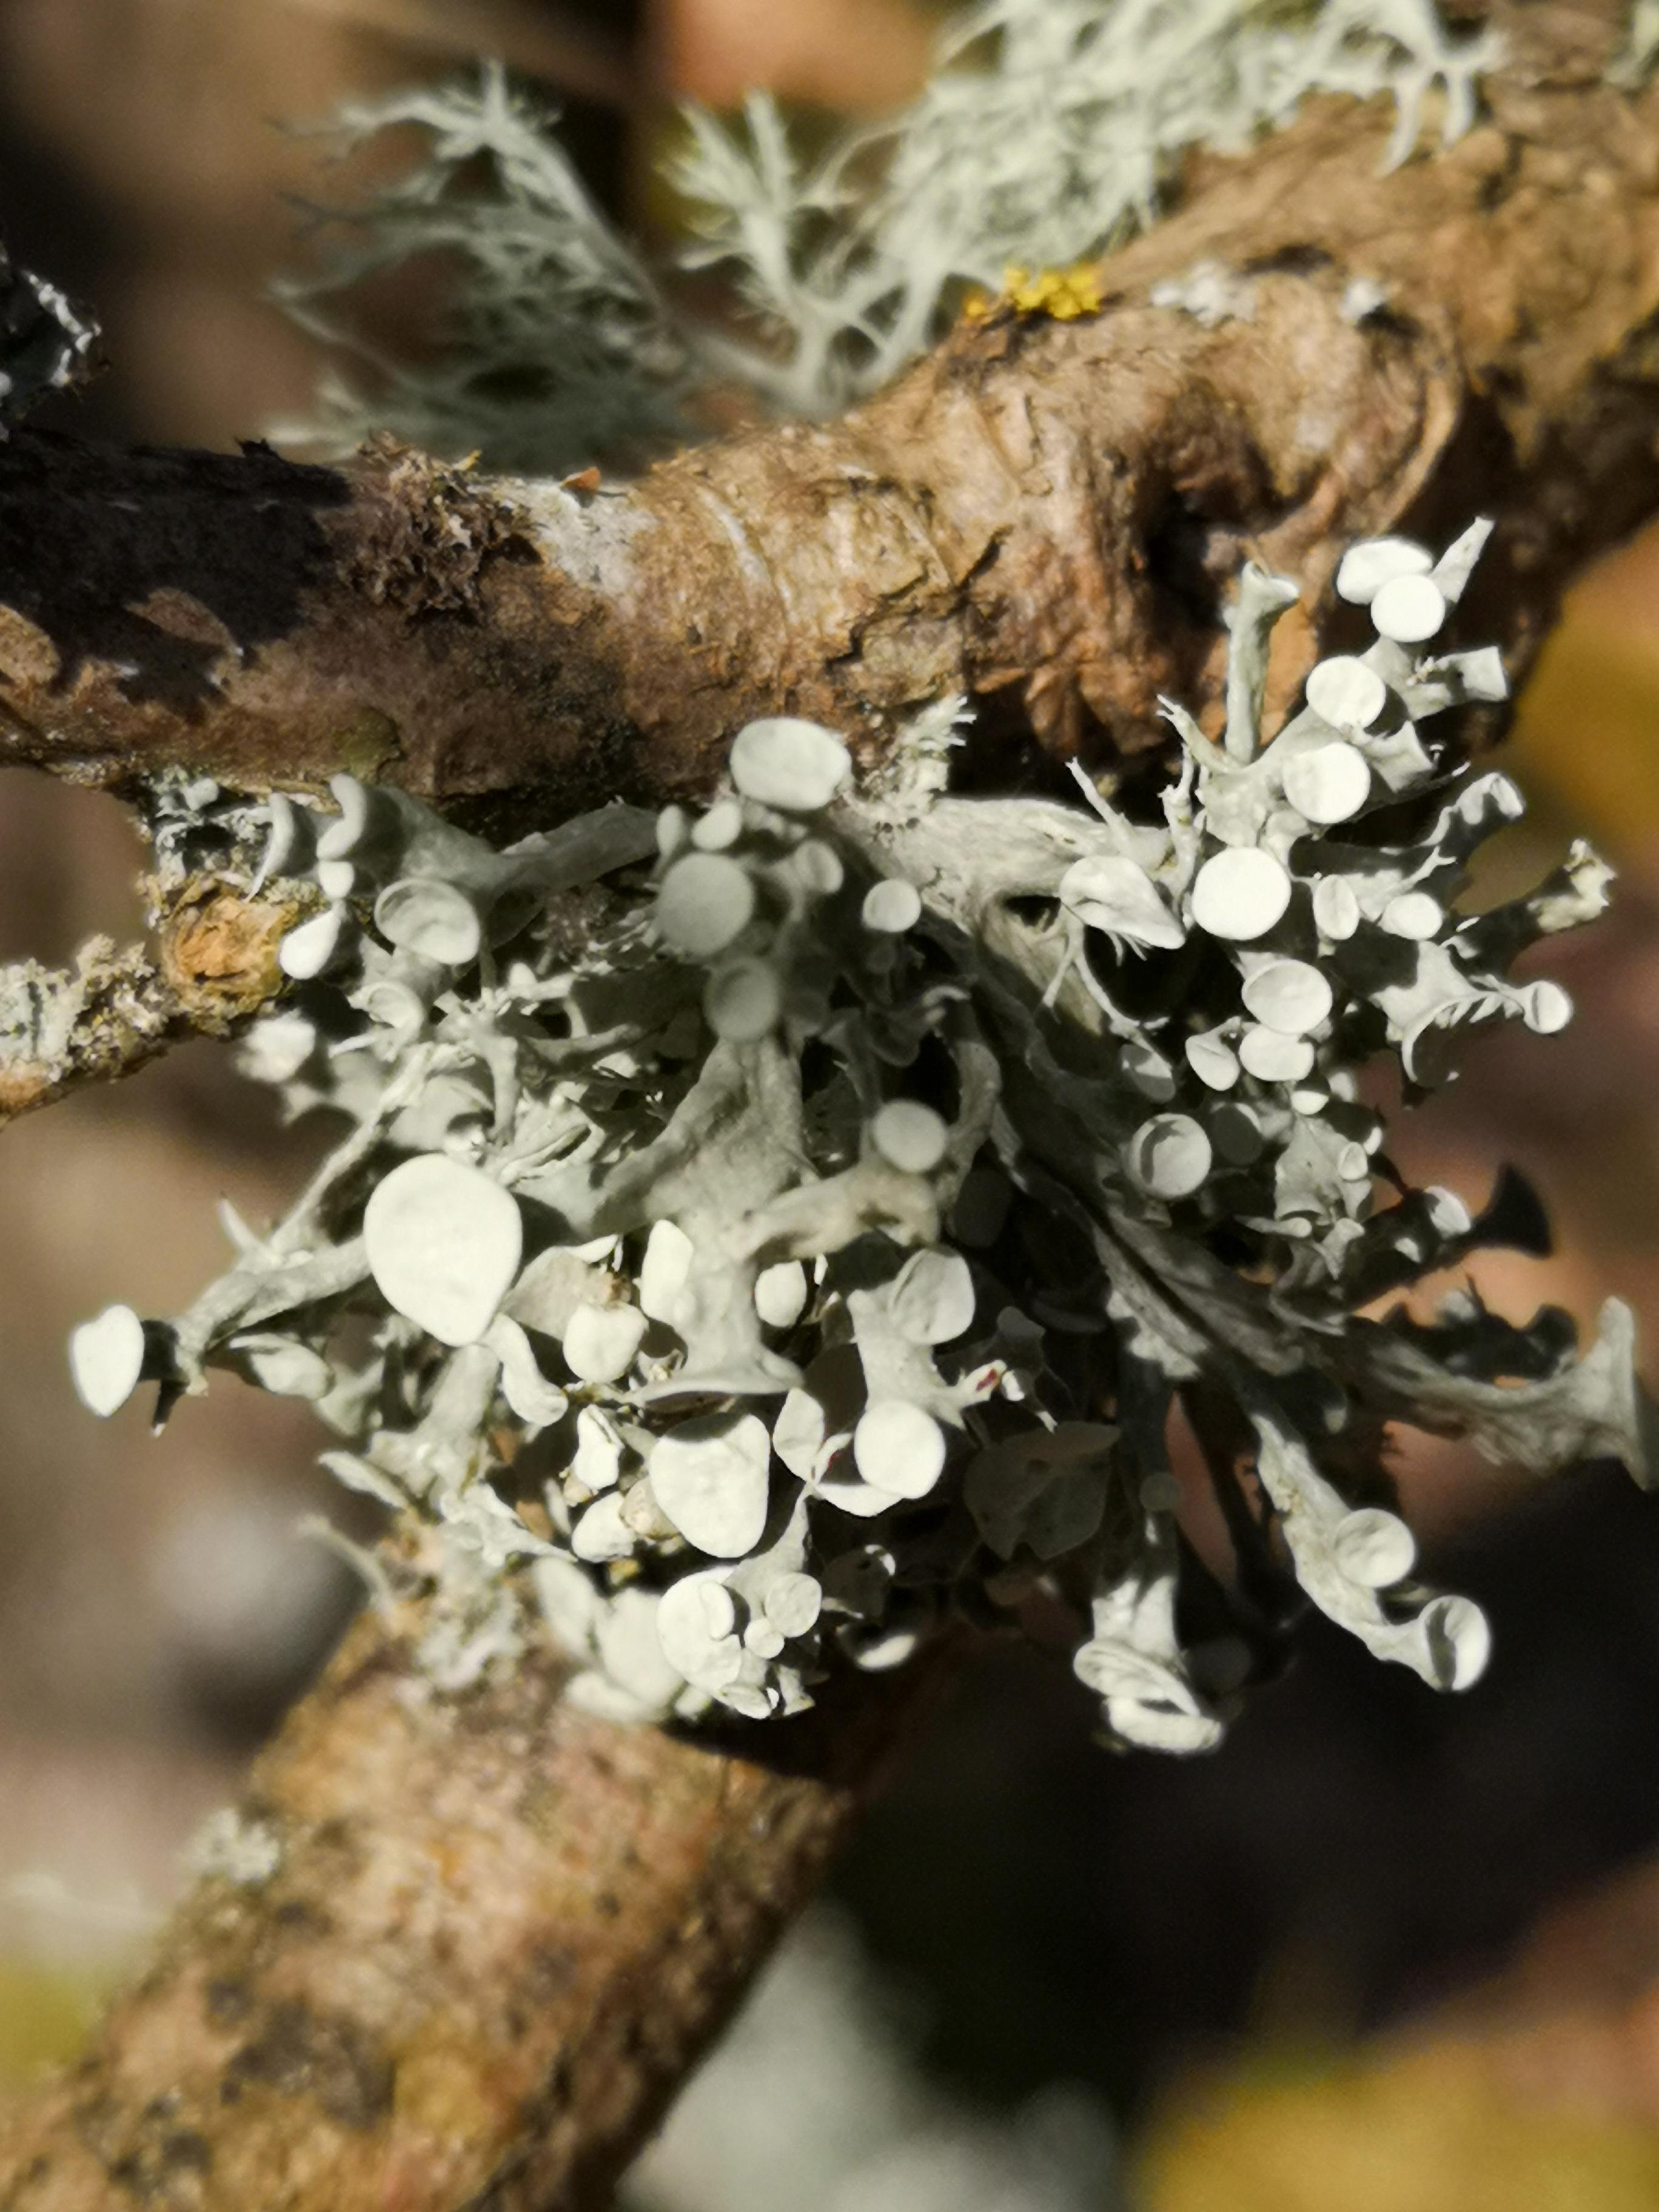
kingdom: Fungi
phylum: Ascomycota
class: Lecanoromycetes
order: Lecanorales
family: Ramalinaceae
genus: Ramalina
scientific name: Ramalina fastigiata
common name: tue-grenlav
